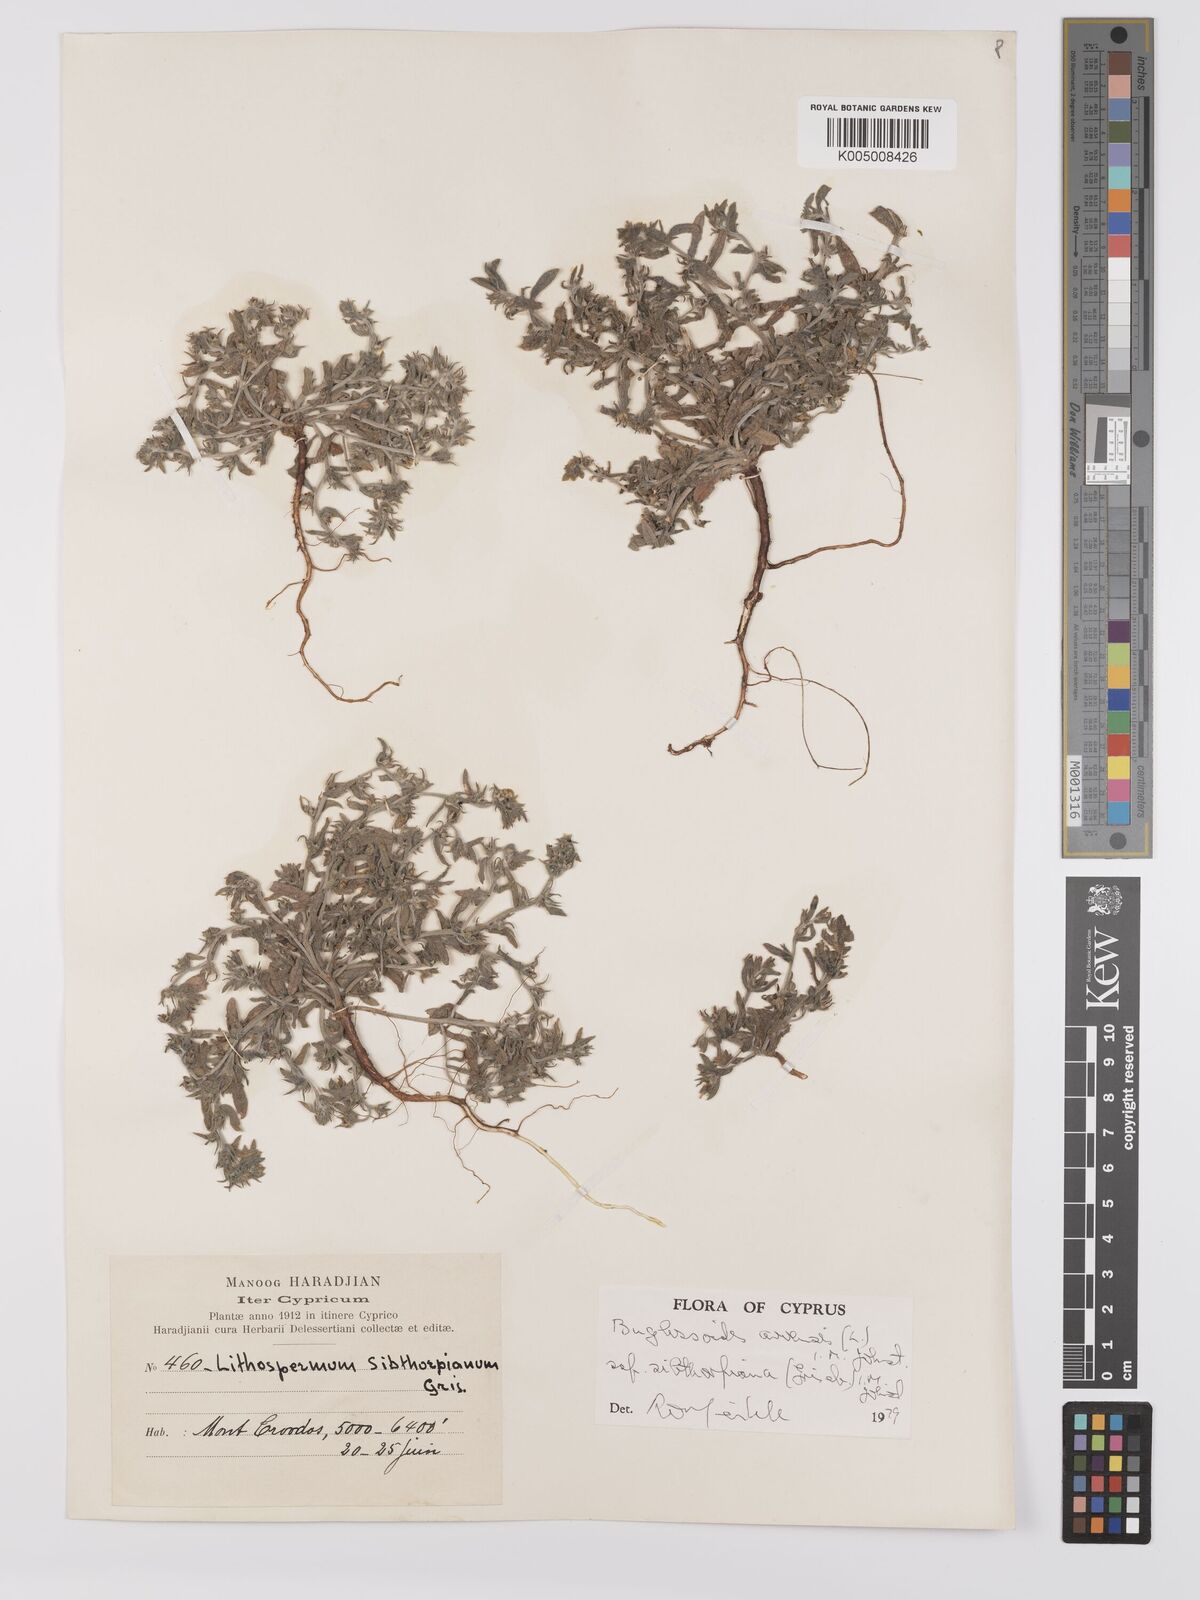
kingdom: Plantae
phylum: Tracheophyta
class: Magnoliopsida
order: Boraginales
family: Boraginaceae
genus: Buglossoides
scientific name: Buglossoides
